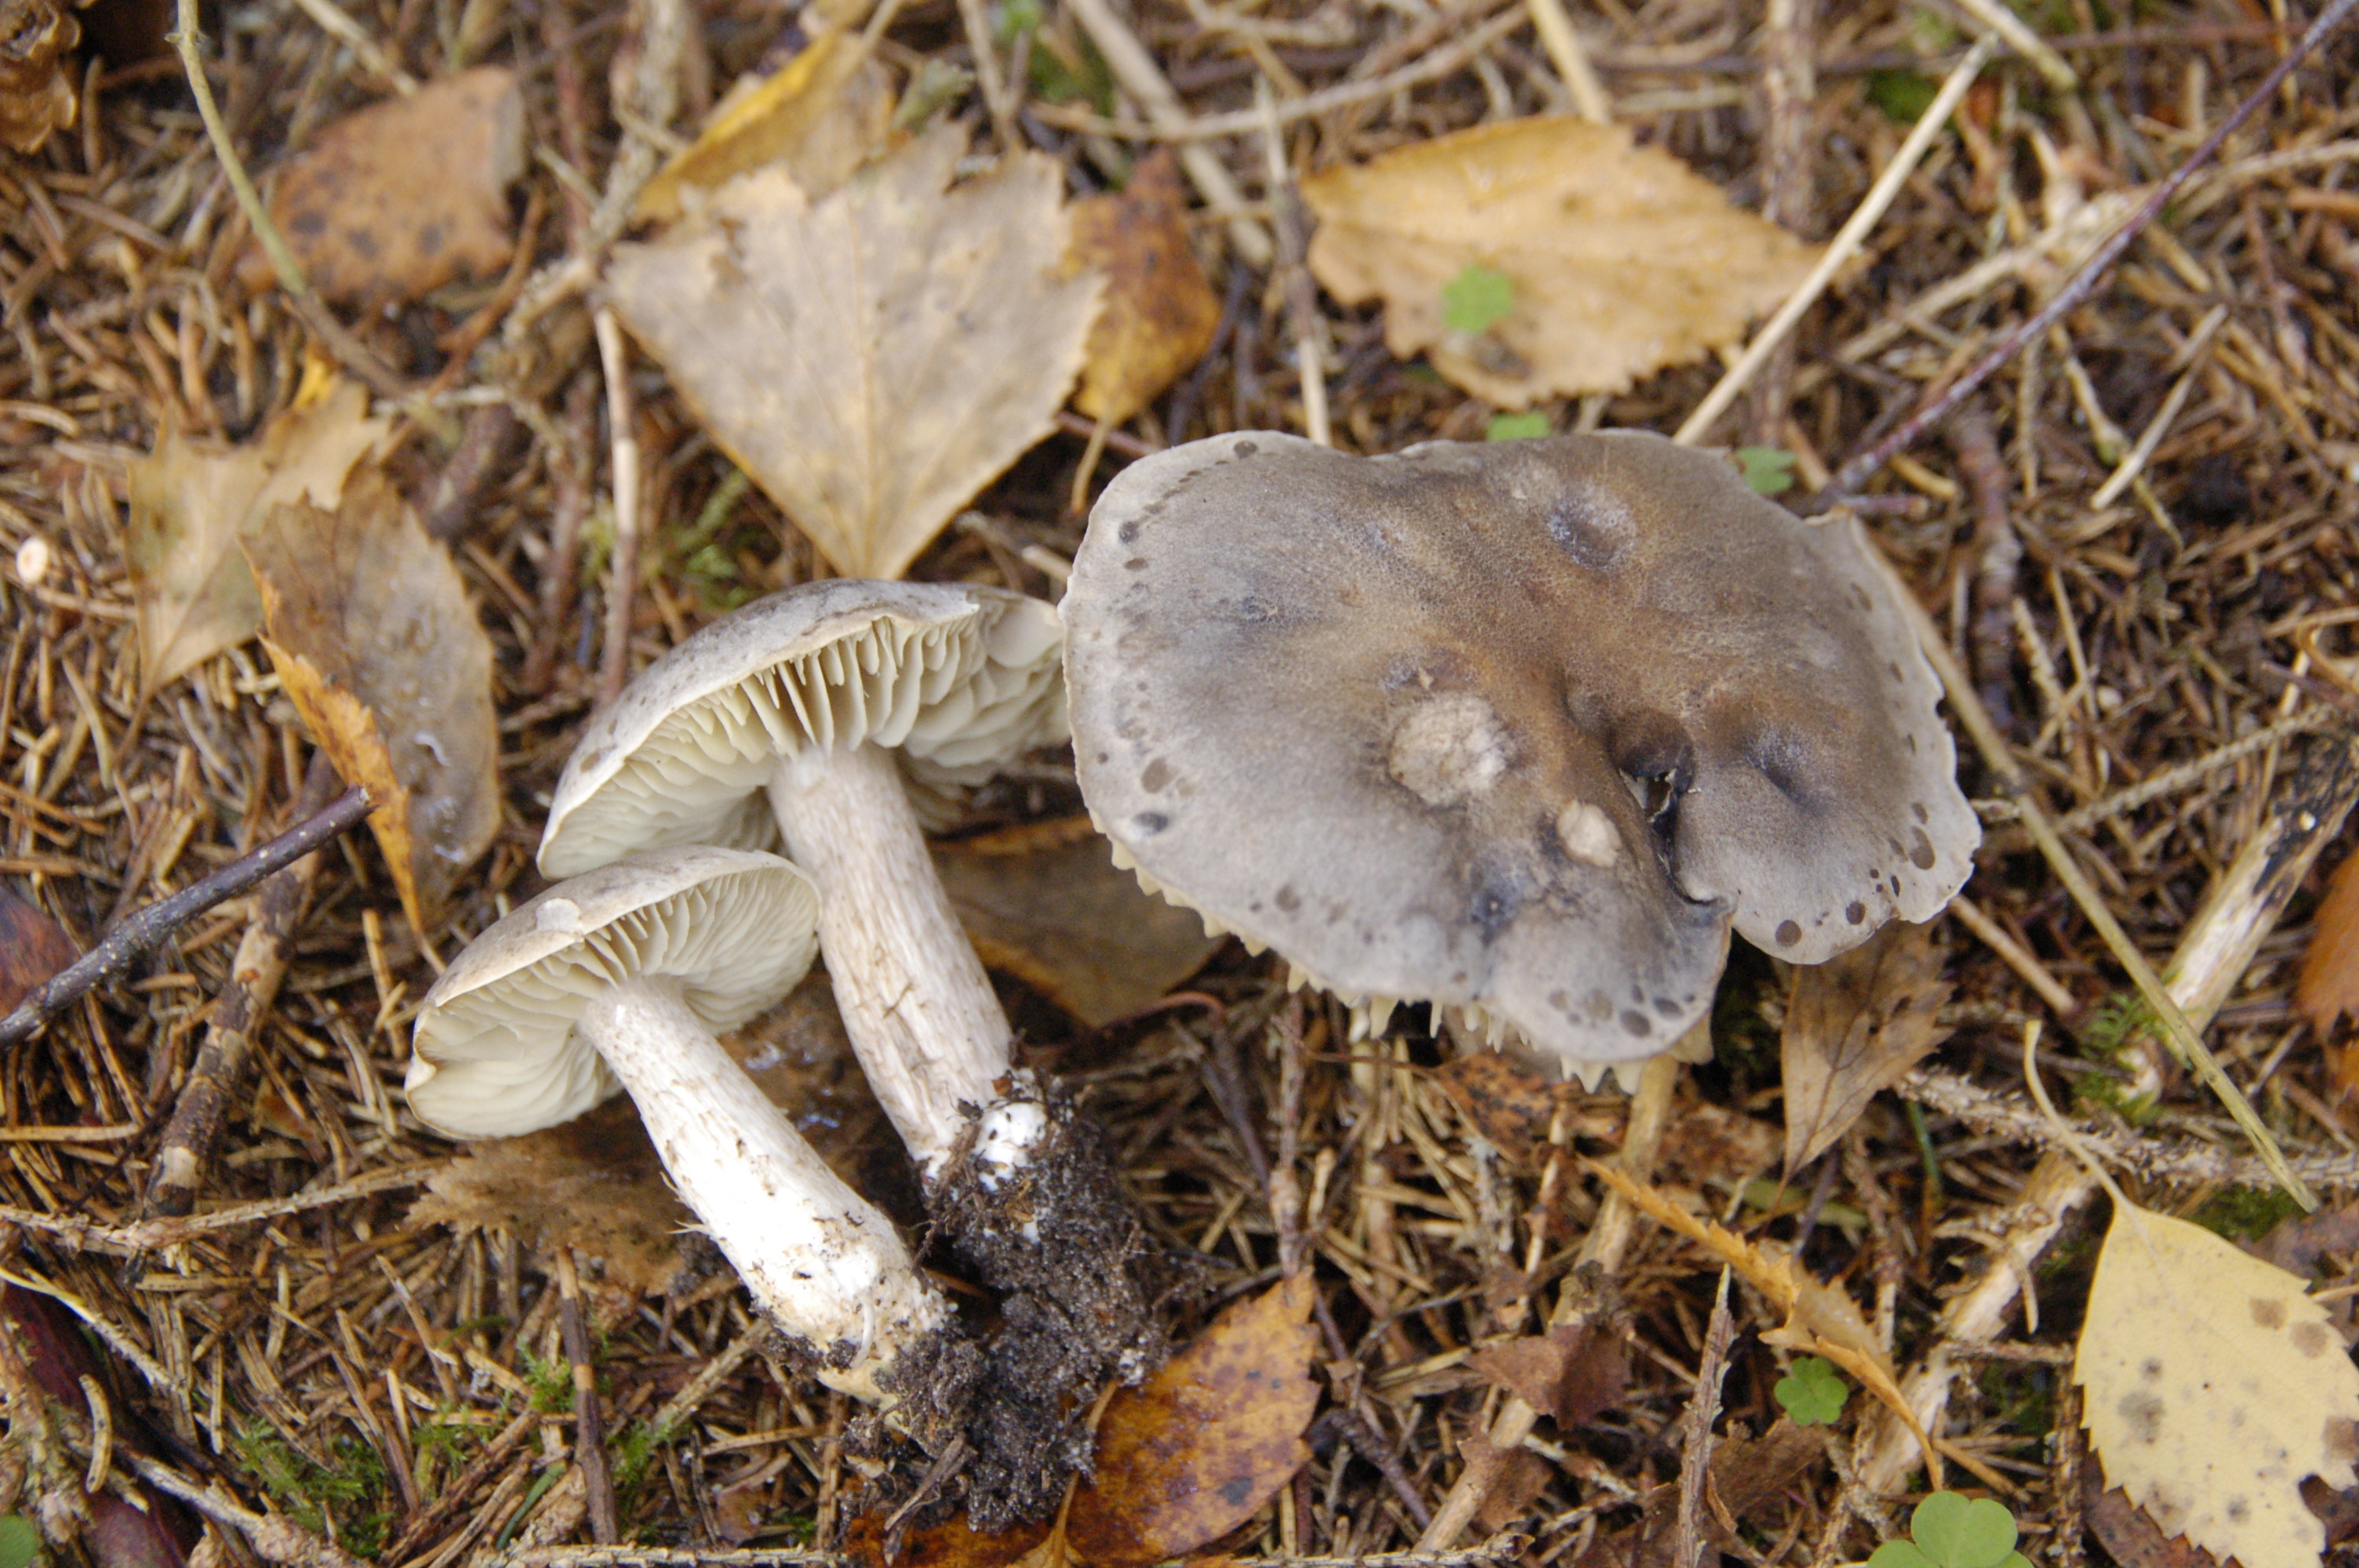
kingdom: Fungi
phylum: Basidiomycota
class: Agaricomycetes
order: Agaricales
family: Tricholomataceae
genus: Tricholoma
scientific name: Tricholoma saponaceum
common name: Soapy trich
